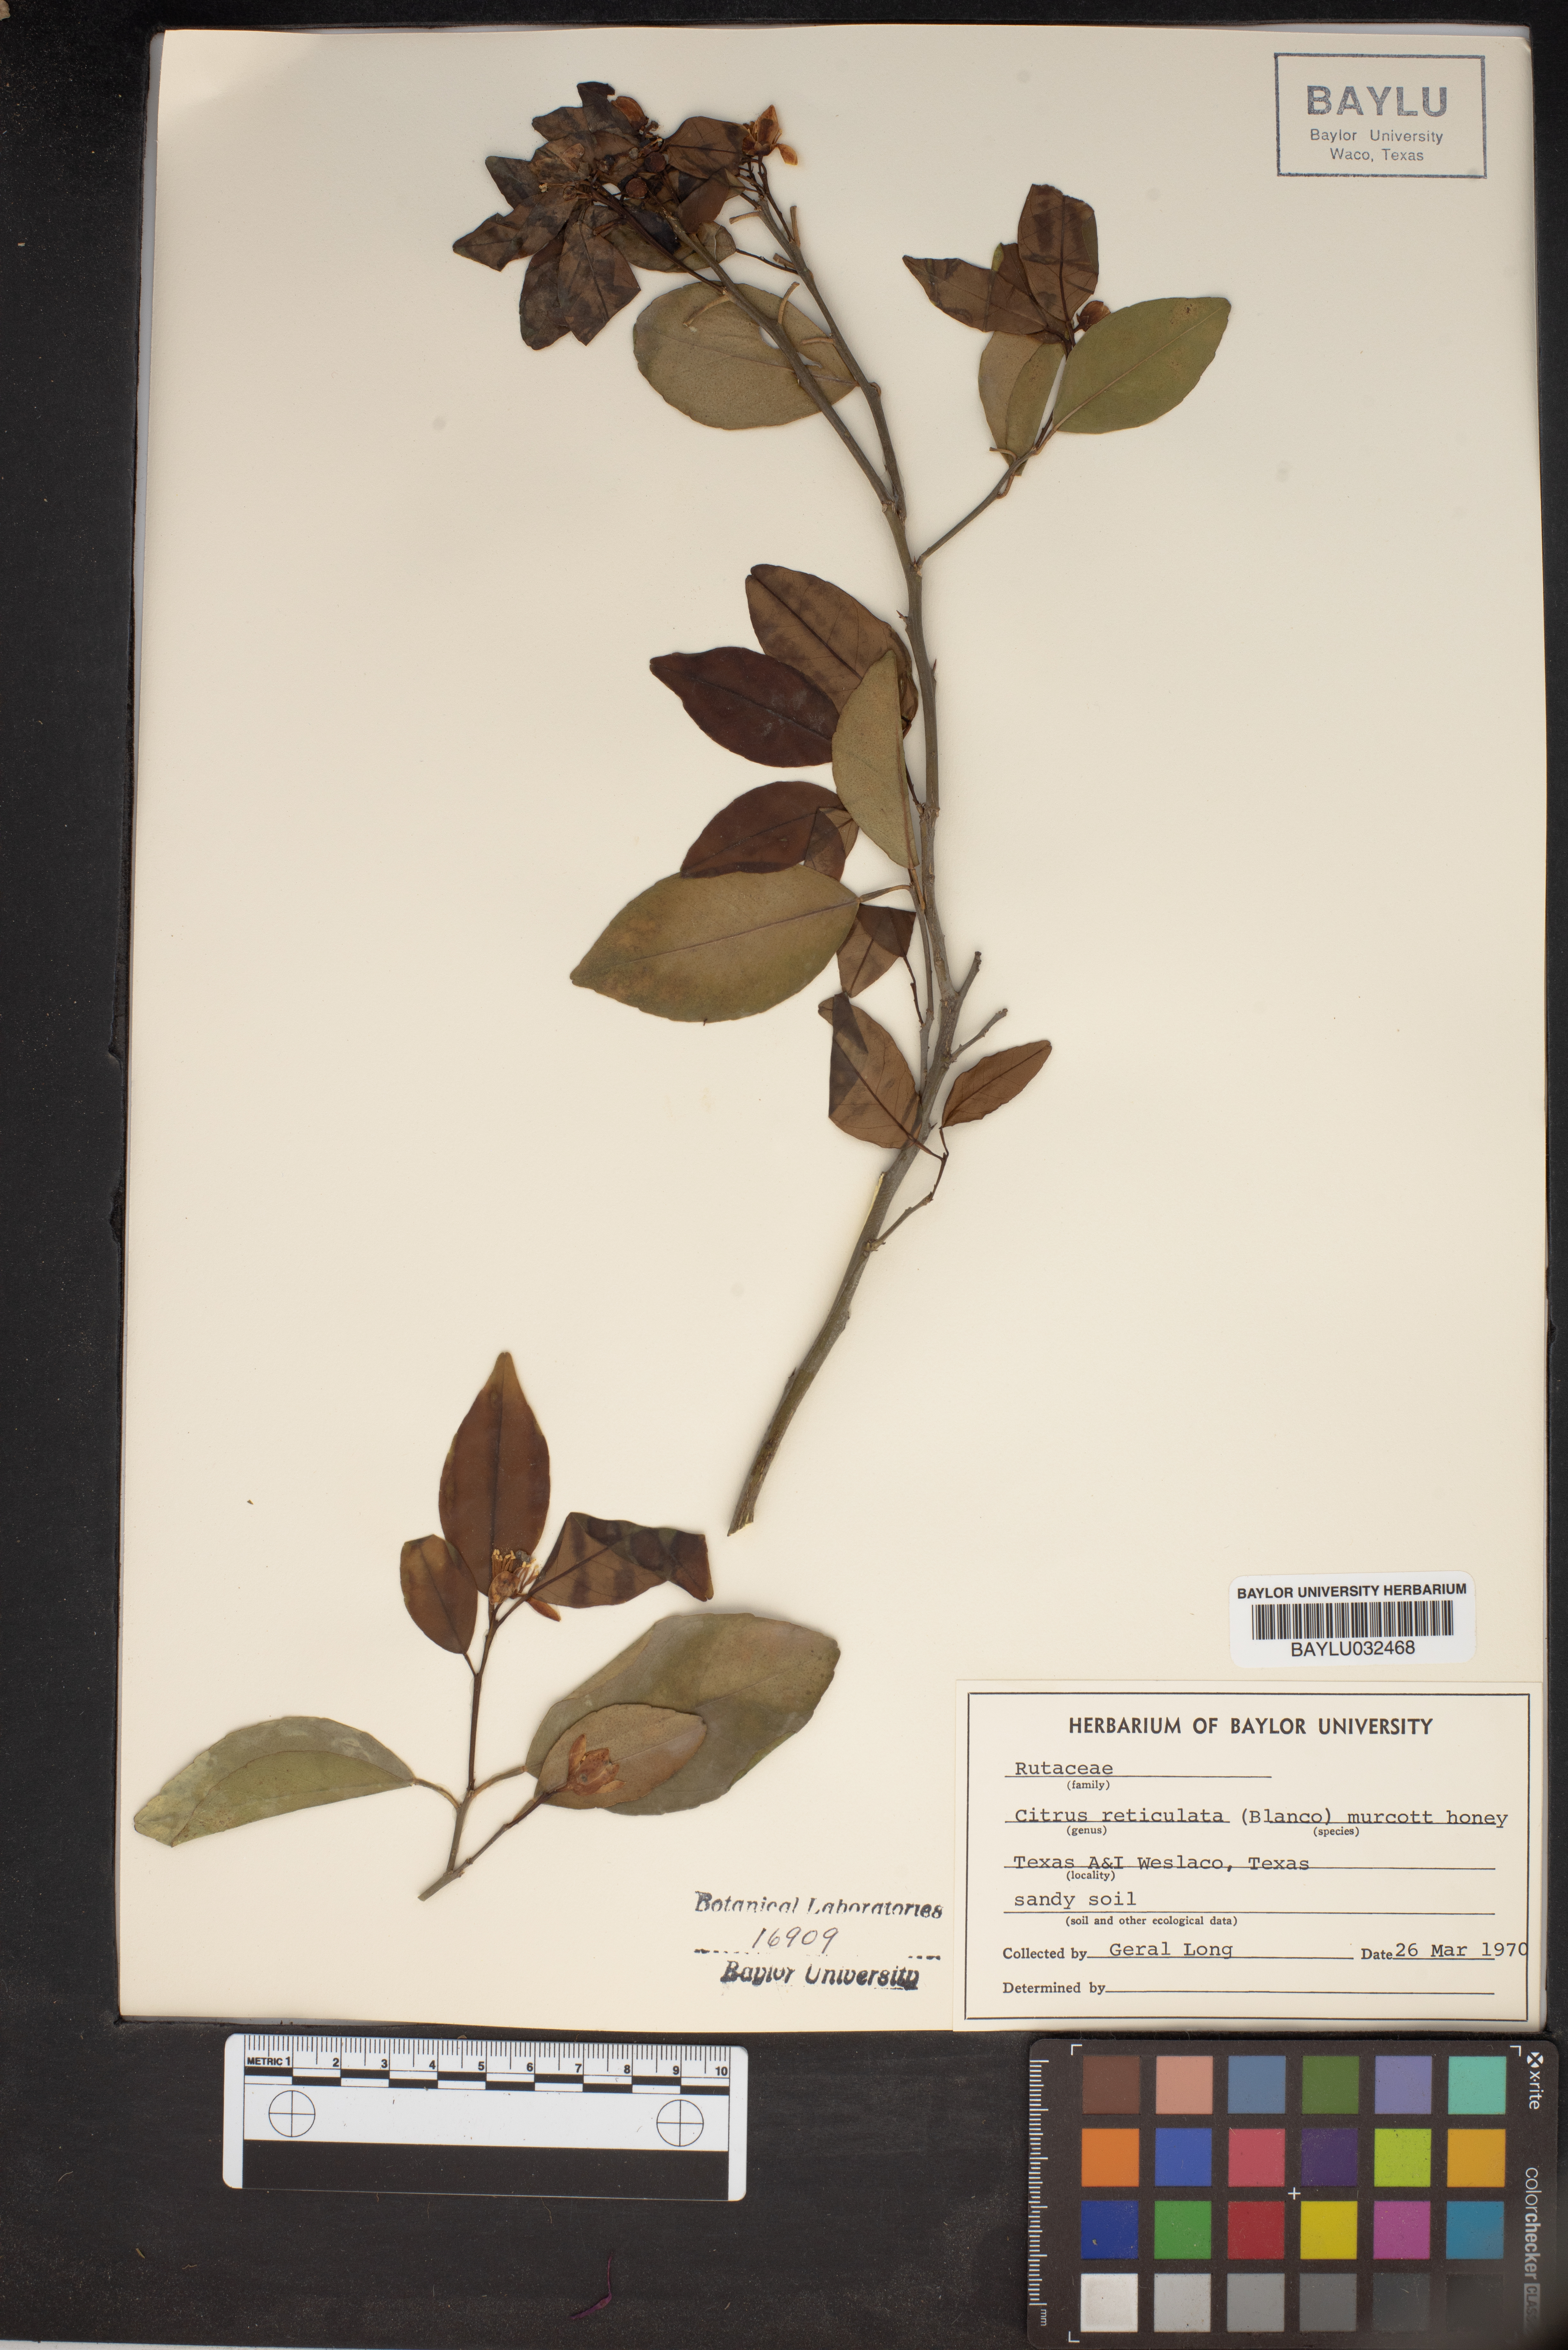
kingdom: Plantae
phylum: Tracheophyta
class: Magnoliopsida
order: Sapindales
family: Rutaceae
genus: Citrus
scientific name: Citrus reticulata
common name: Tangerine
